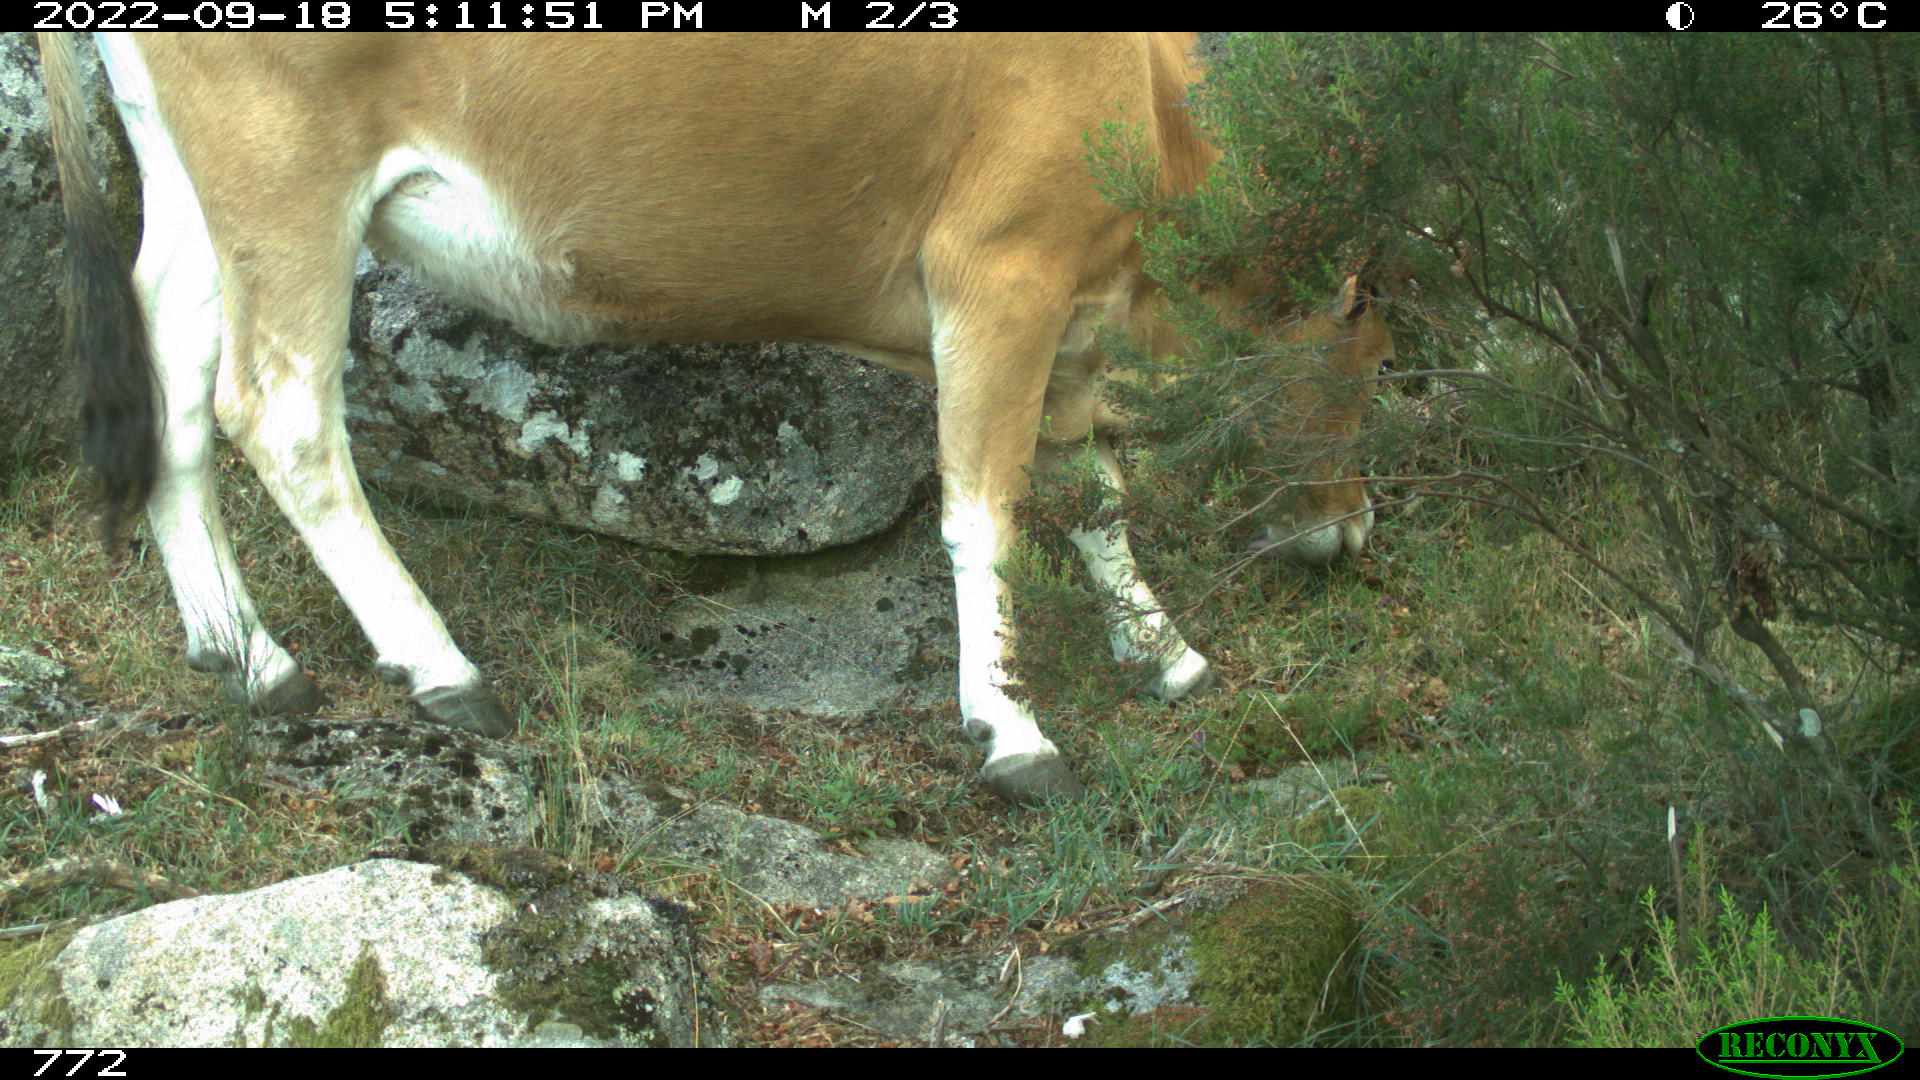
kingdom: Animalia
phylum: Chordata
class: Mammalia
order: Artiodactyla
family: Bovidae
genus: Bos
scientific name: Bos taurus
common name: Domesticated cattle
